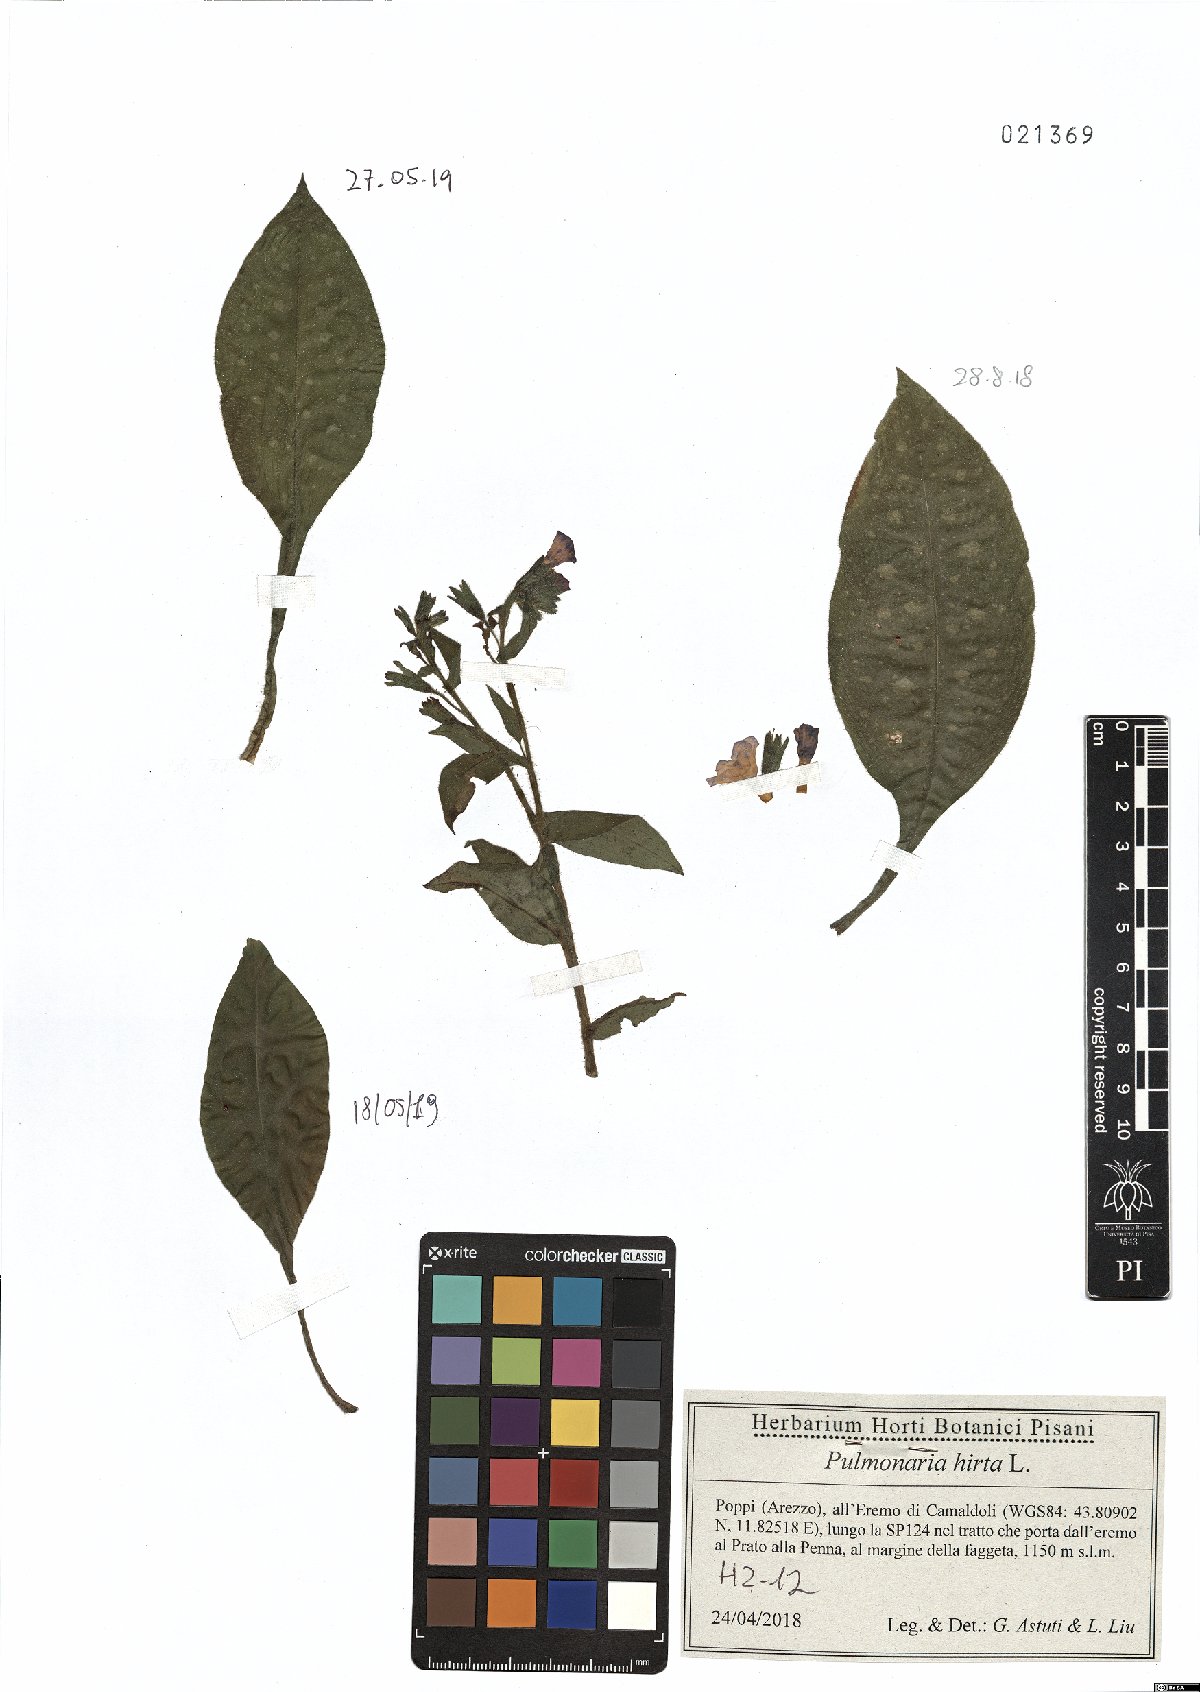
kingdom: Plantae
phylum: Tracheophyta
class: Magnoliopsida
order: Boraginales
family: Boraginaceae
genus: Pulmonaria
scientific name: Pulmonaria hirta
